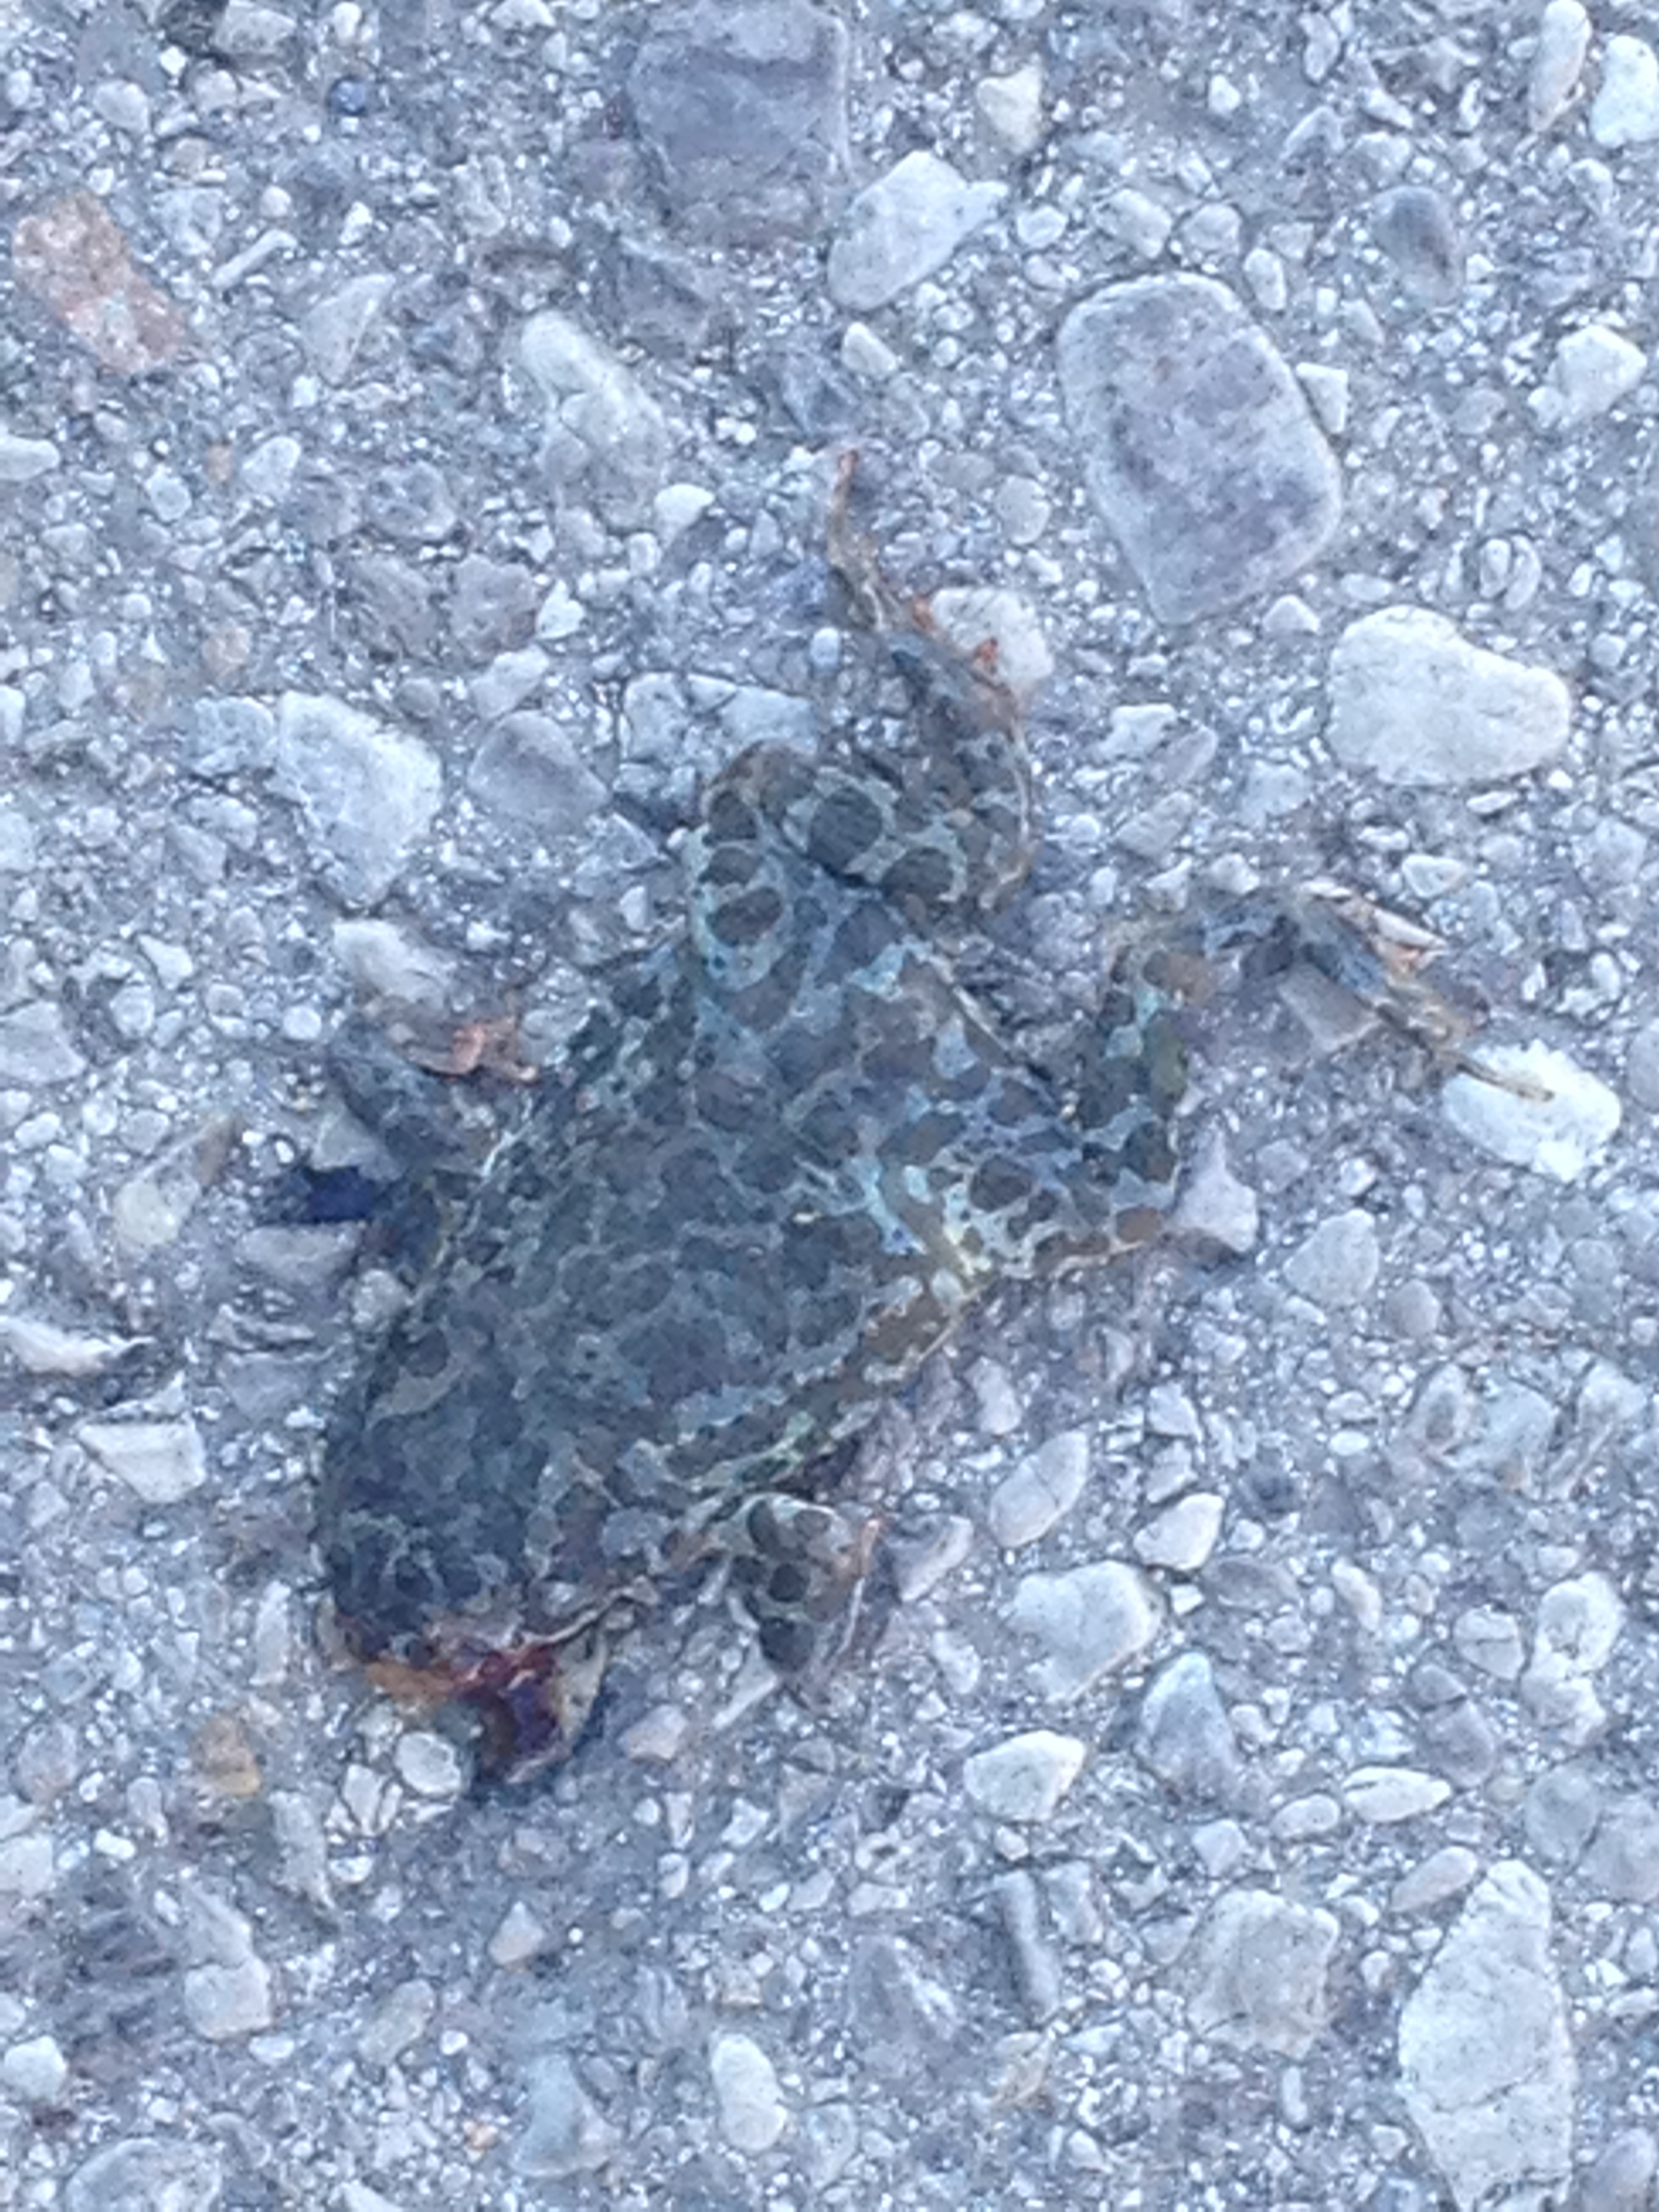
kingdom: Animalia
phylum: Chordata
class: Amphibia
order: Anura
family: Bufonidae
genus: Bufotes
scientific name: Bufotes viridis
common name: European green toad
